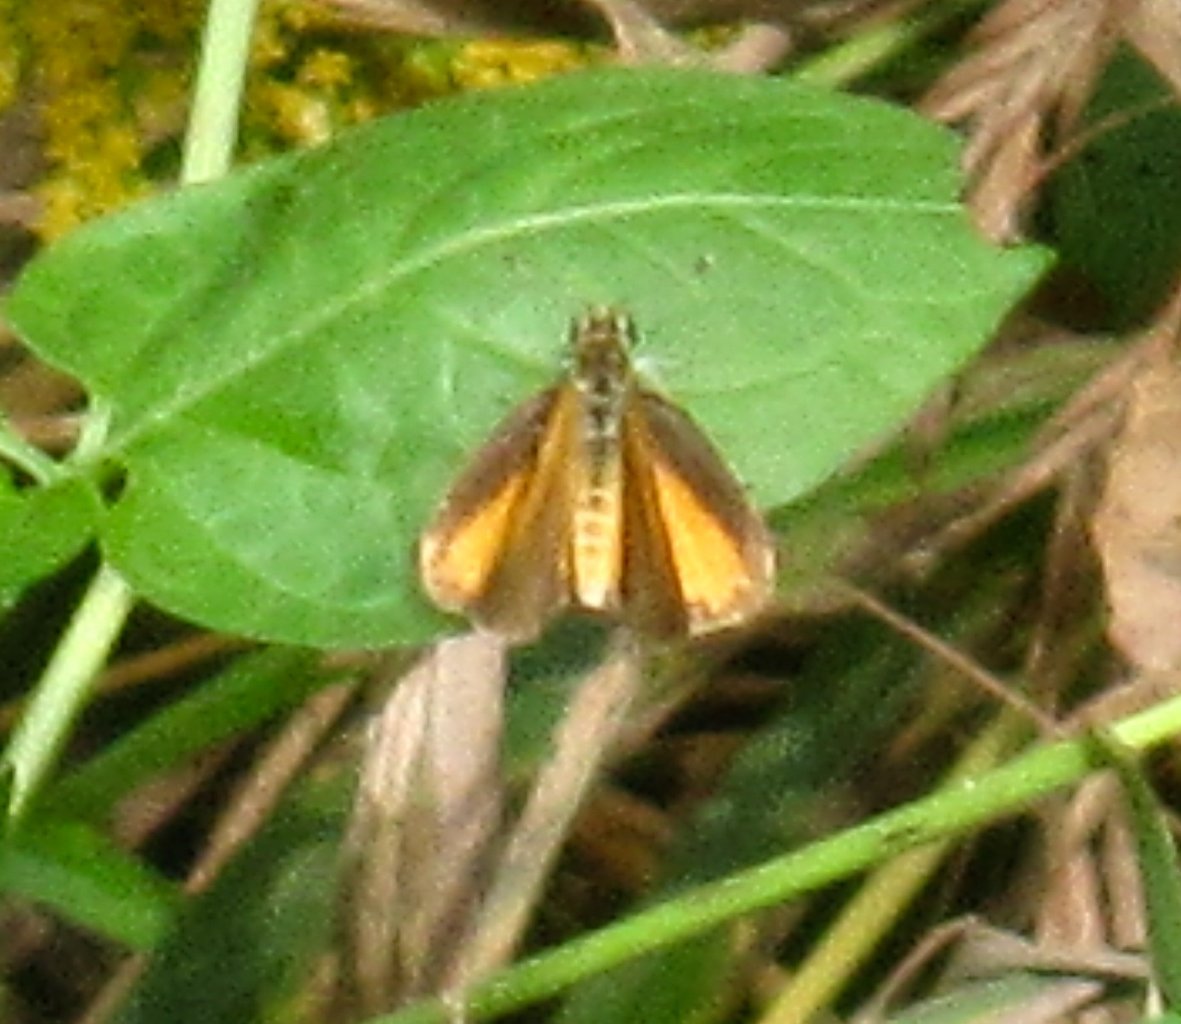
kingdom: Animalia
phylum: Arthropoda
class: Insecta
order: Lepidoptera
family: Hesperiidae
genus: Ancyloxypha
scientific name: Ancyloxypha numitor
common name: Least Skipper
